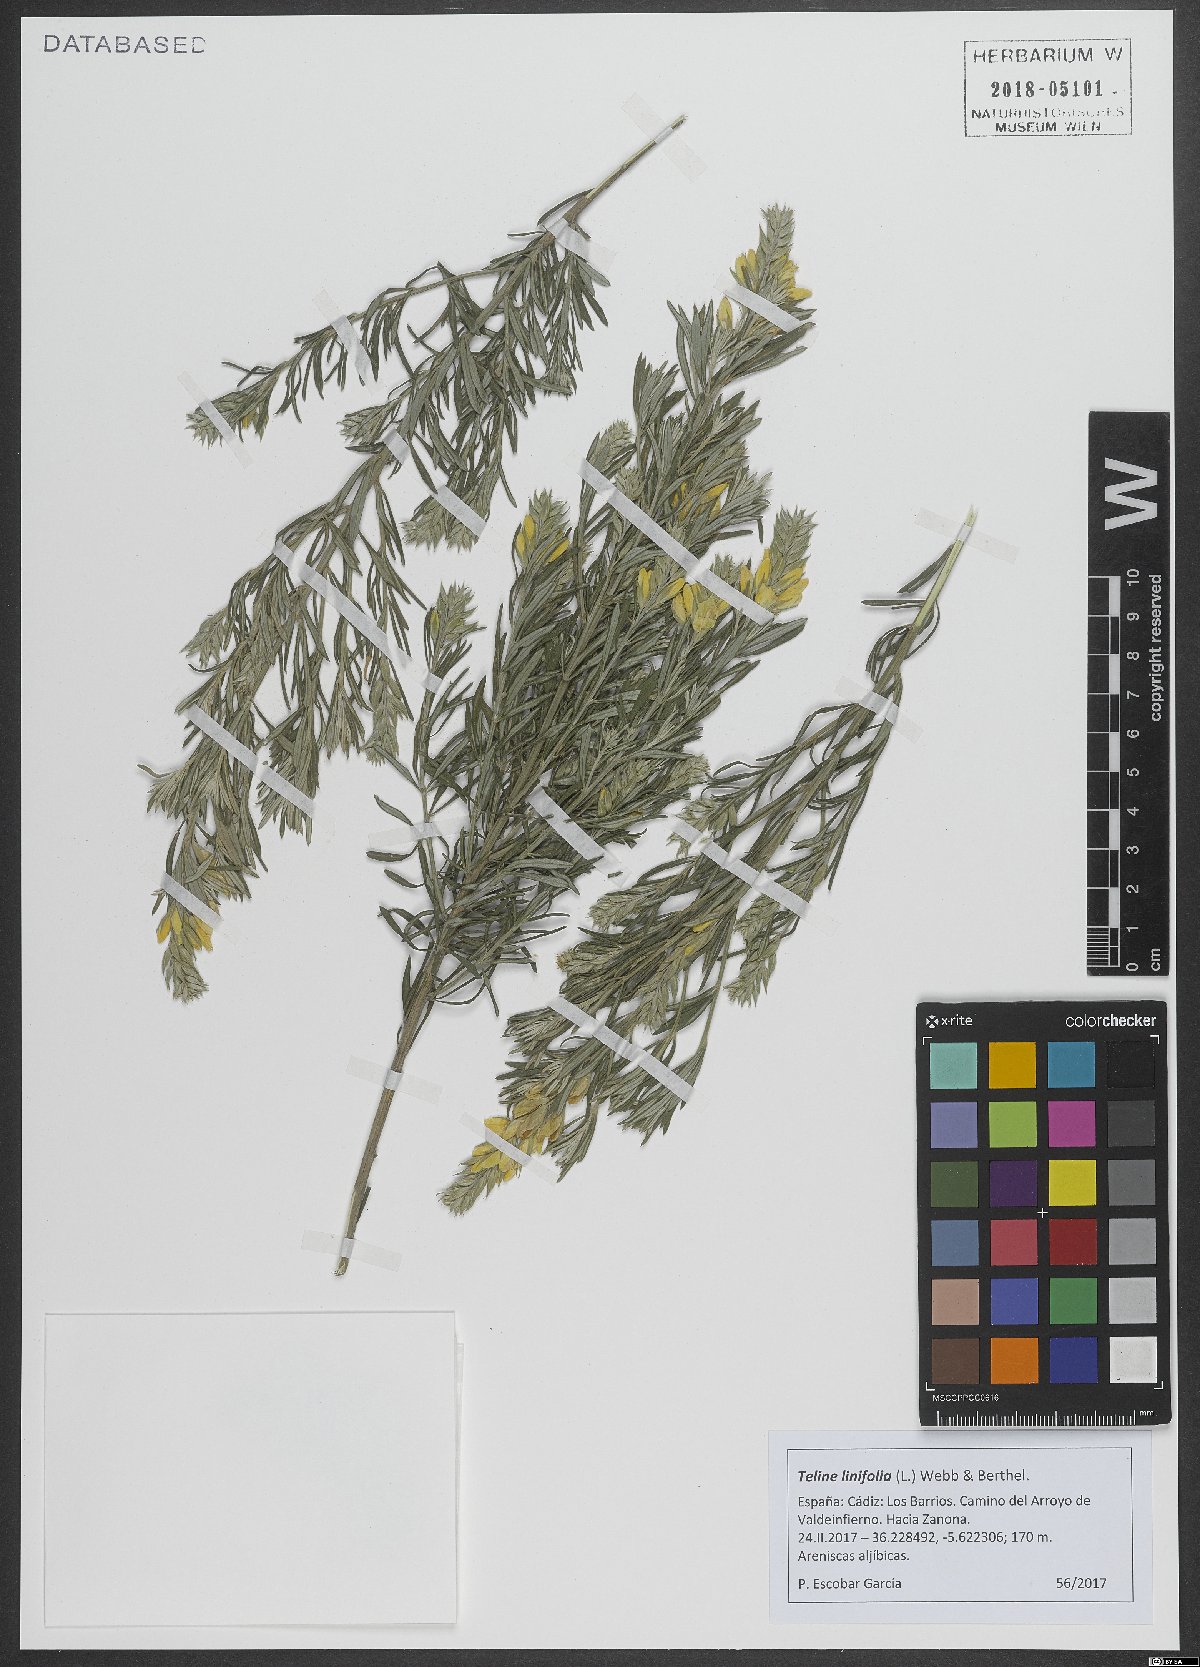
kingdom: Plantae
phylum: Tracheophyta
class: Magnoliopsida
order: Fabales
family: Fabaceae
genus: Genista
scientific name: Genista linifolia
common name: Mediterranean broom
